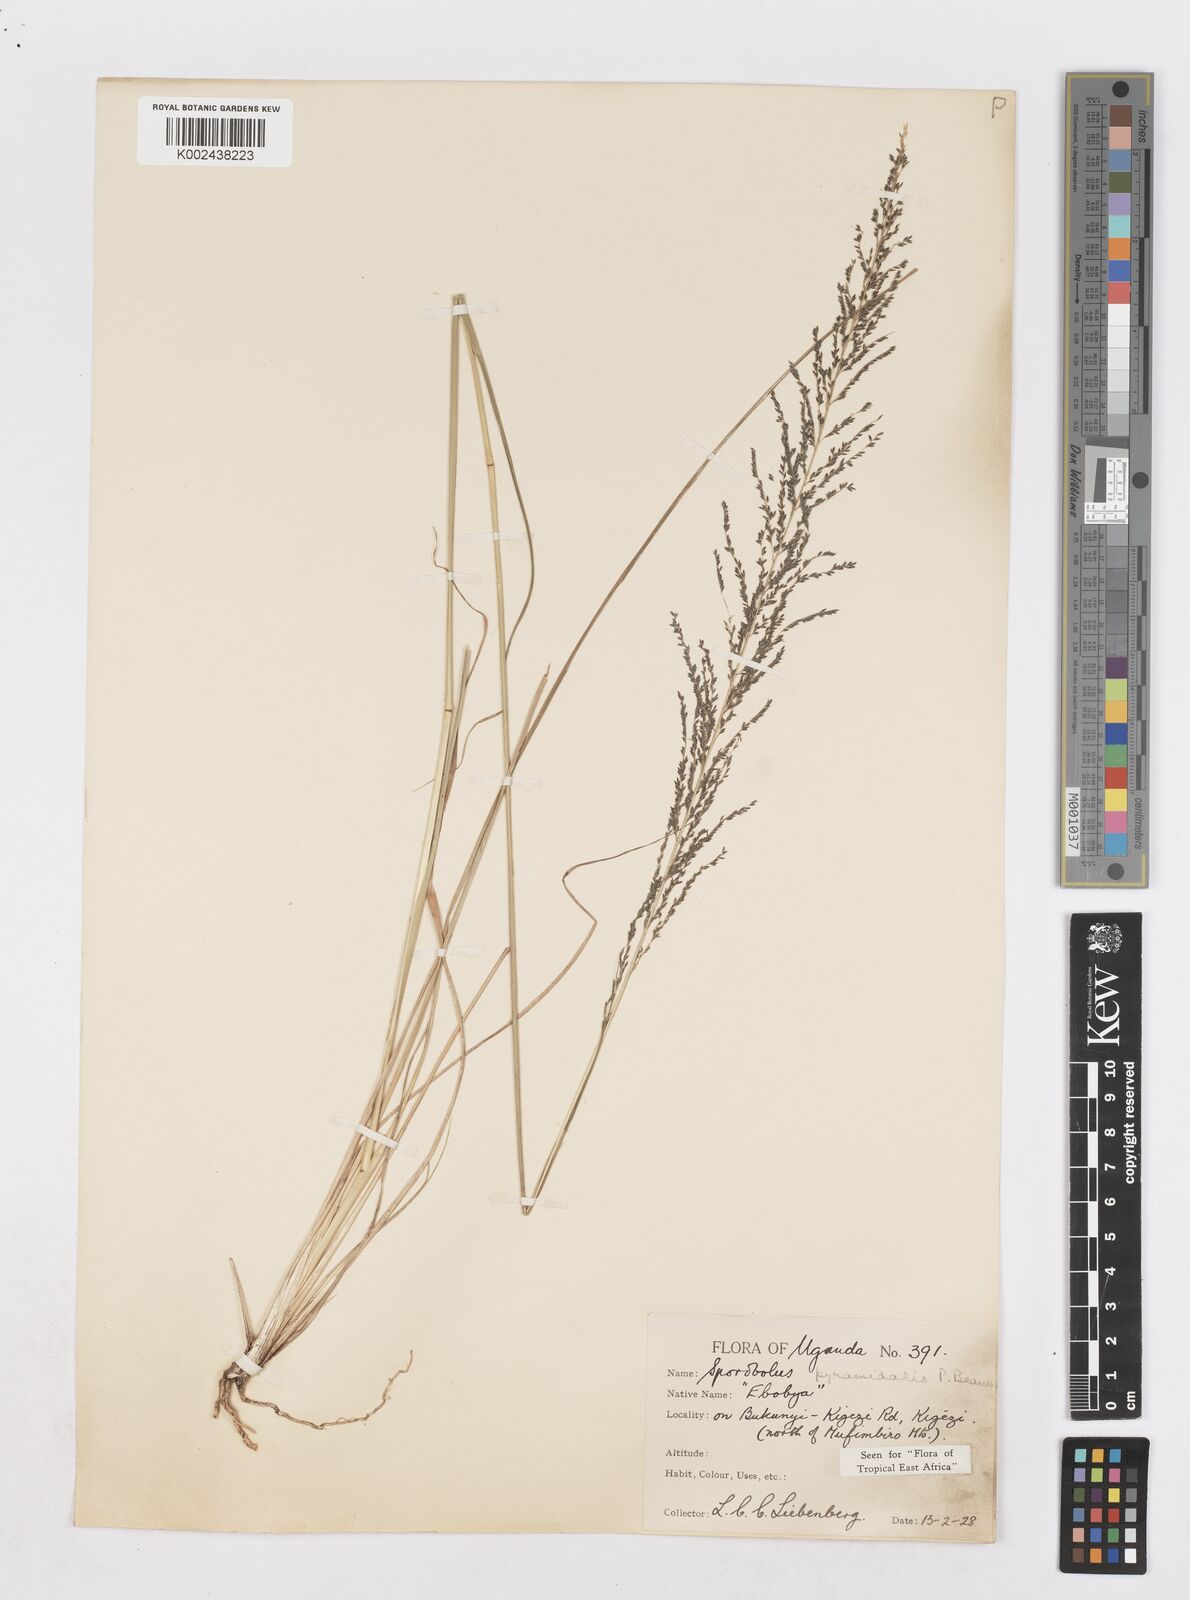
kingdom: Plantae
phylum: Tracheophyta
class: Liliopsida
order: Poales
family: Poaceae
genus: Sporobolus
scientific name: Sporobolus pyramidalis
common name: West indian dropseed
